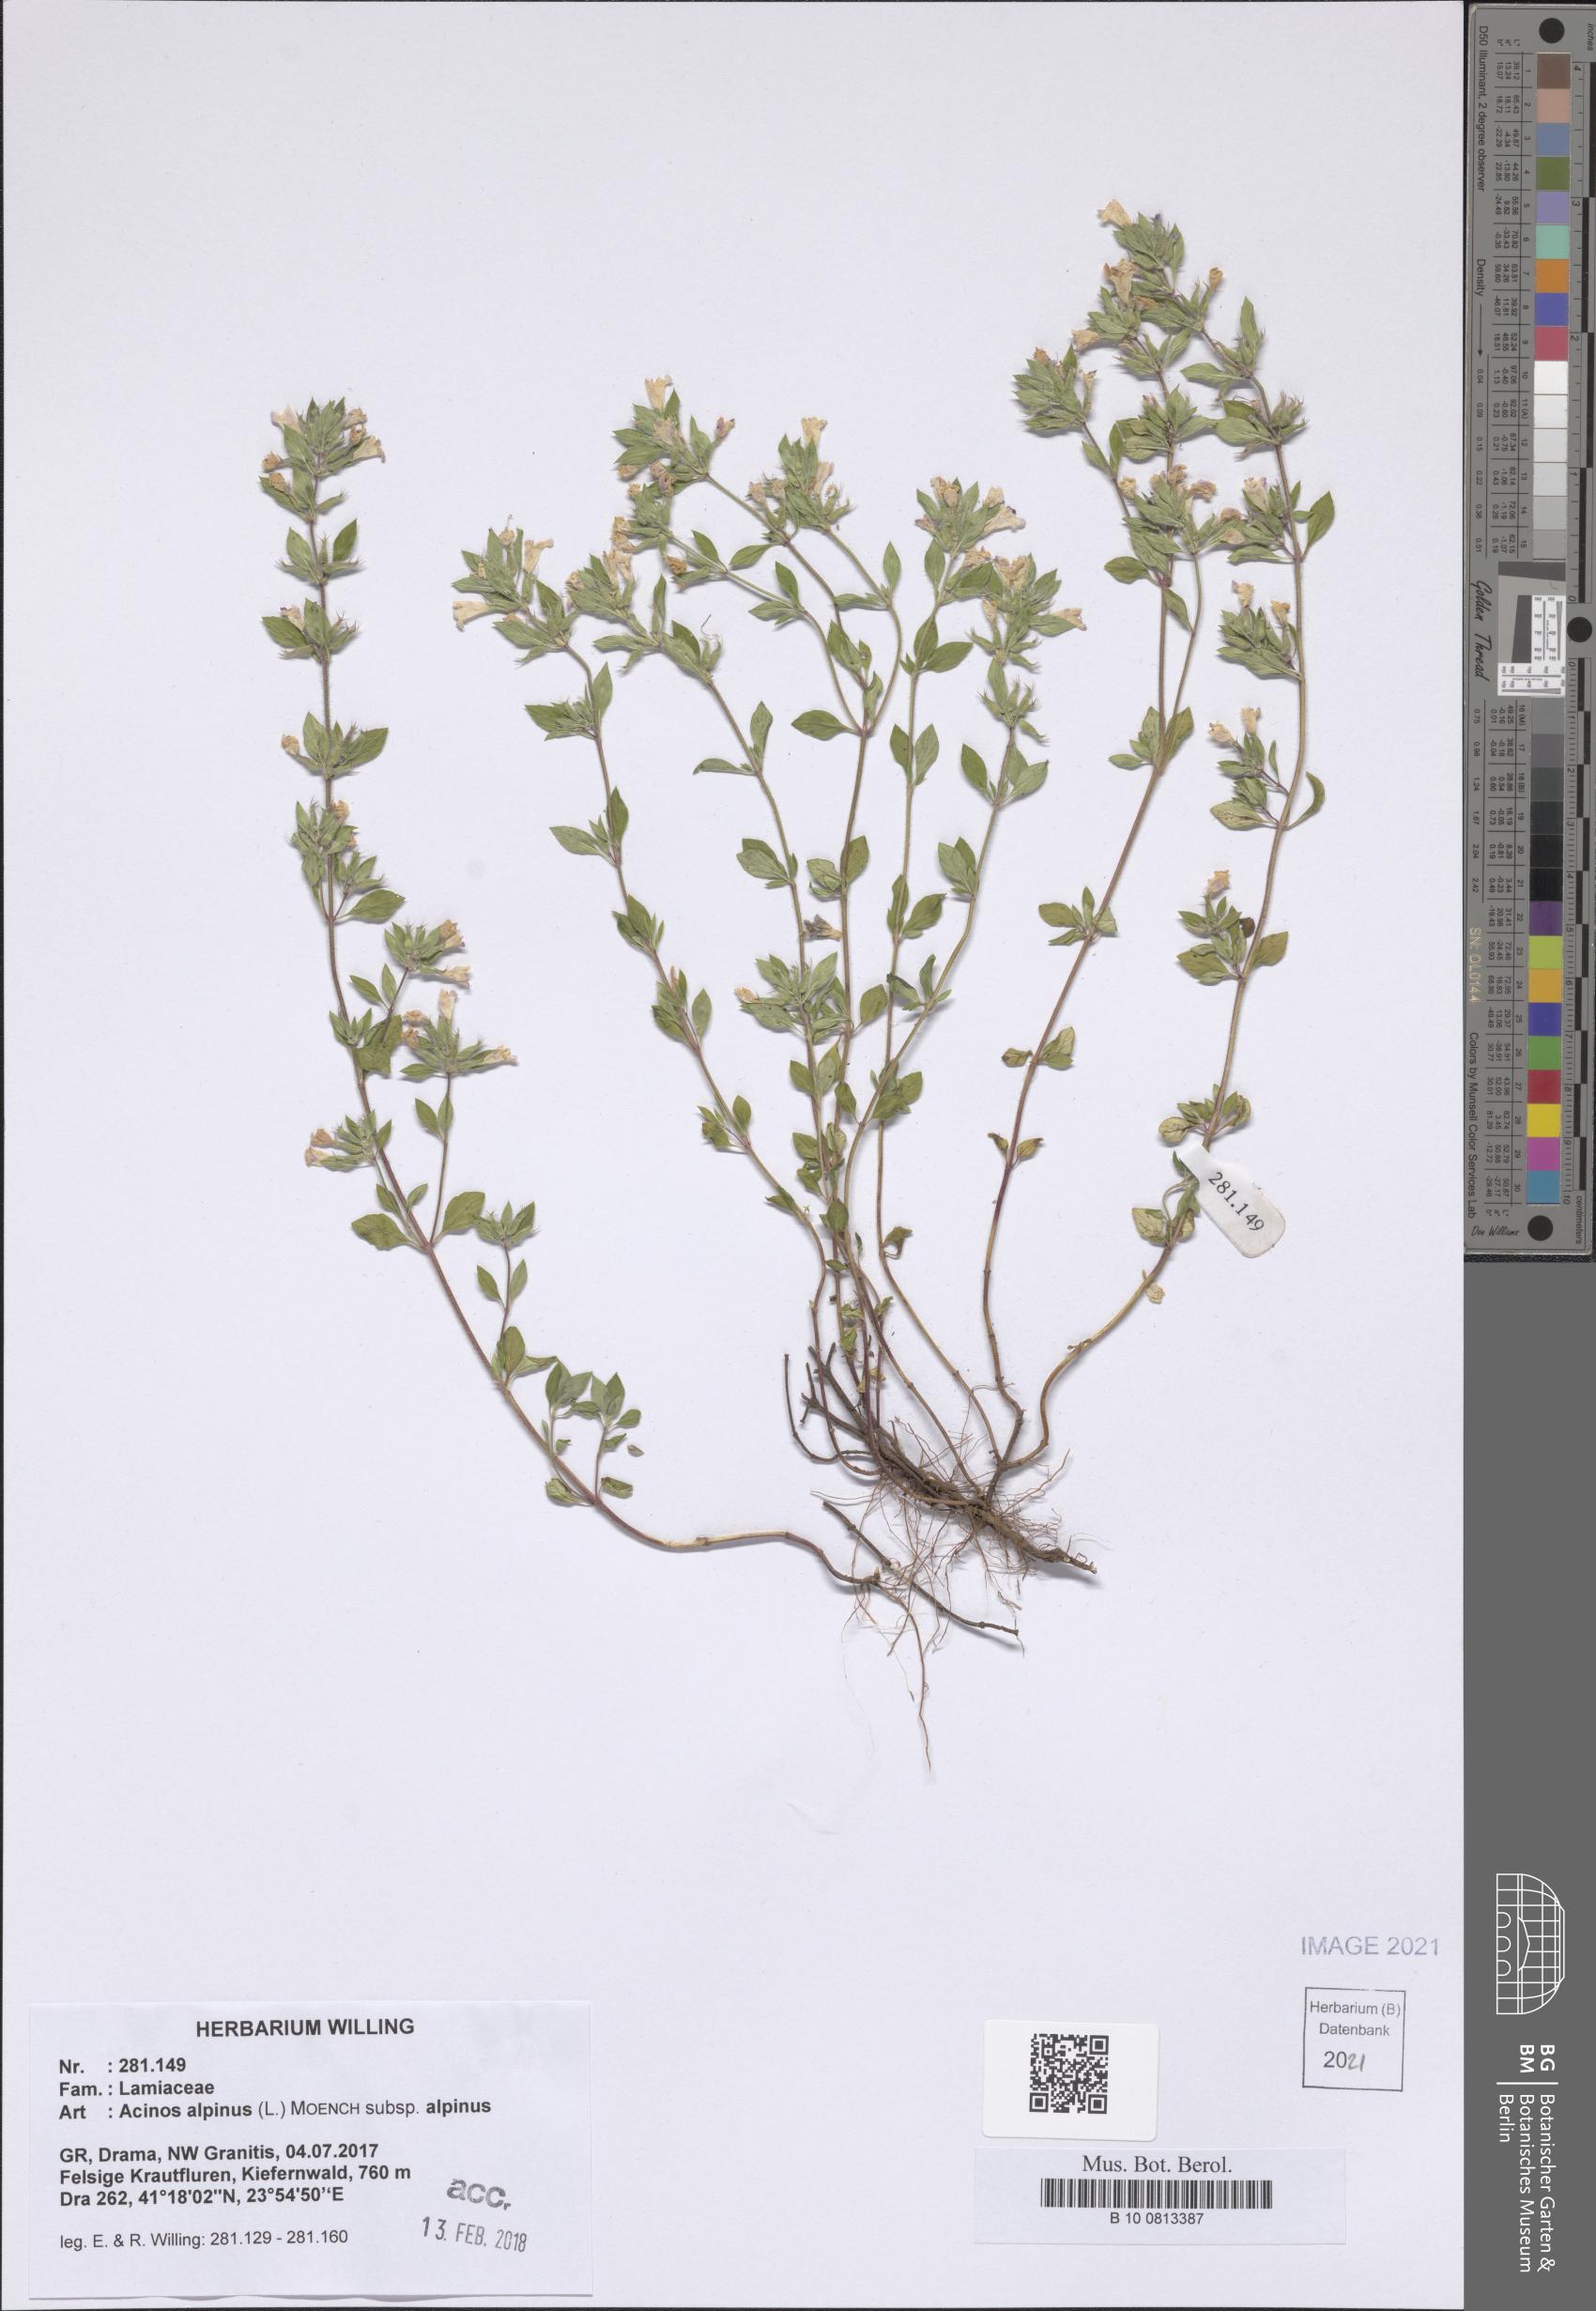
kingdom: Plantae
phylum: Tracheophyta
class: Magnoliopsida
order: Lamiales
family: Lamiaceae
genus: Clinopodium
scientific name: Clinopodium alpinum
